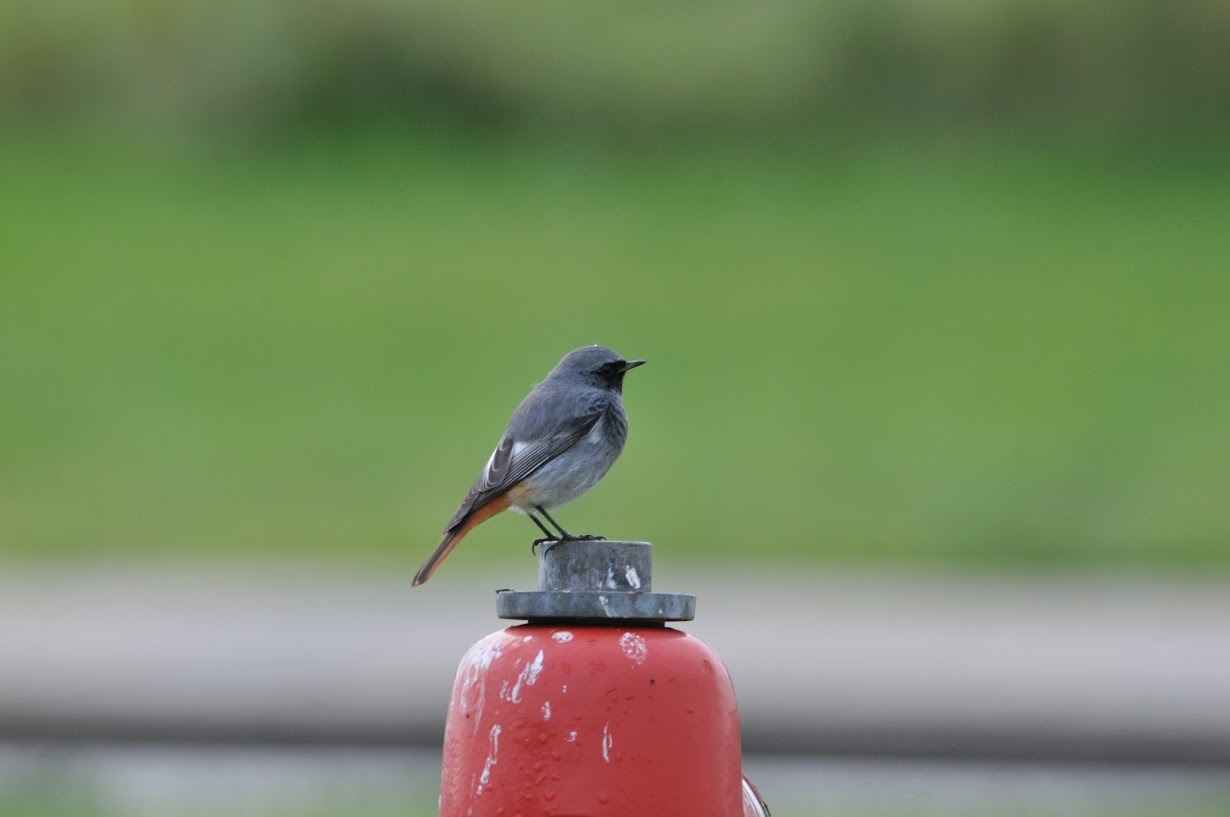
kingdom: Animalia
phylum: Chordata
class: Aves
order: Passeriformes
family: Muscicapidae
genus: Phoenicurus
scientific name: Phoenicurus ochruros
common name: Husrødstjert
